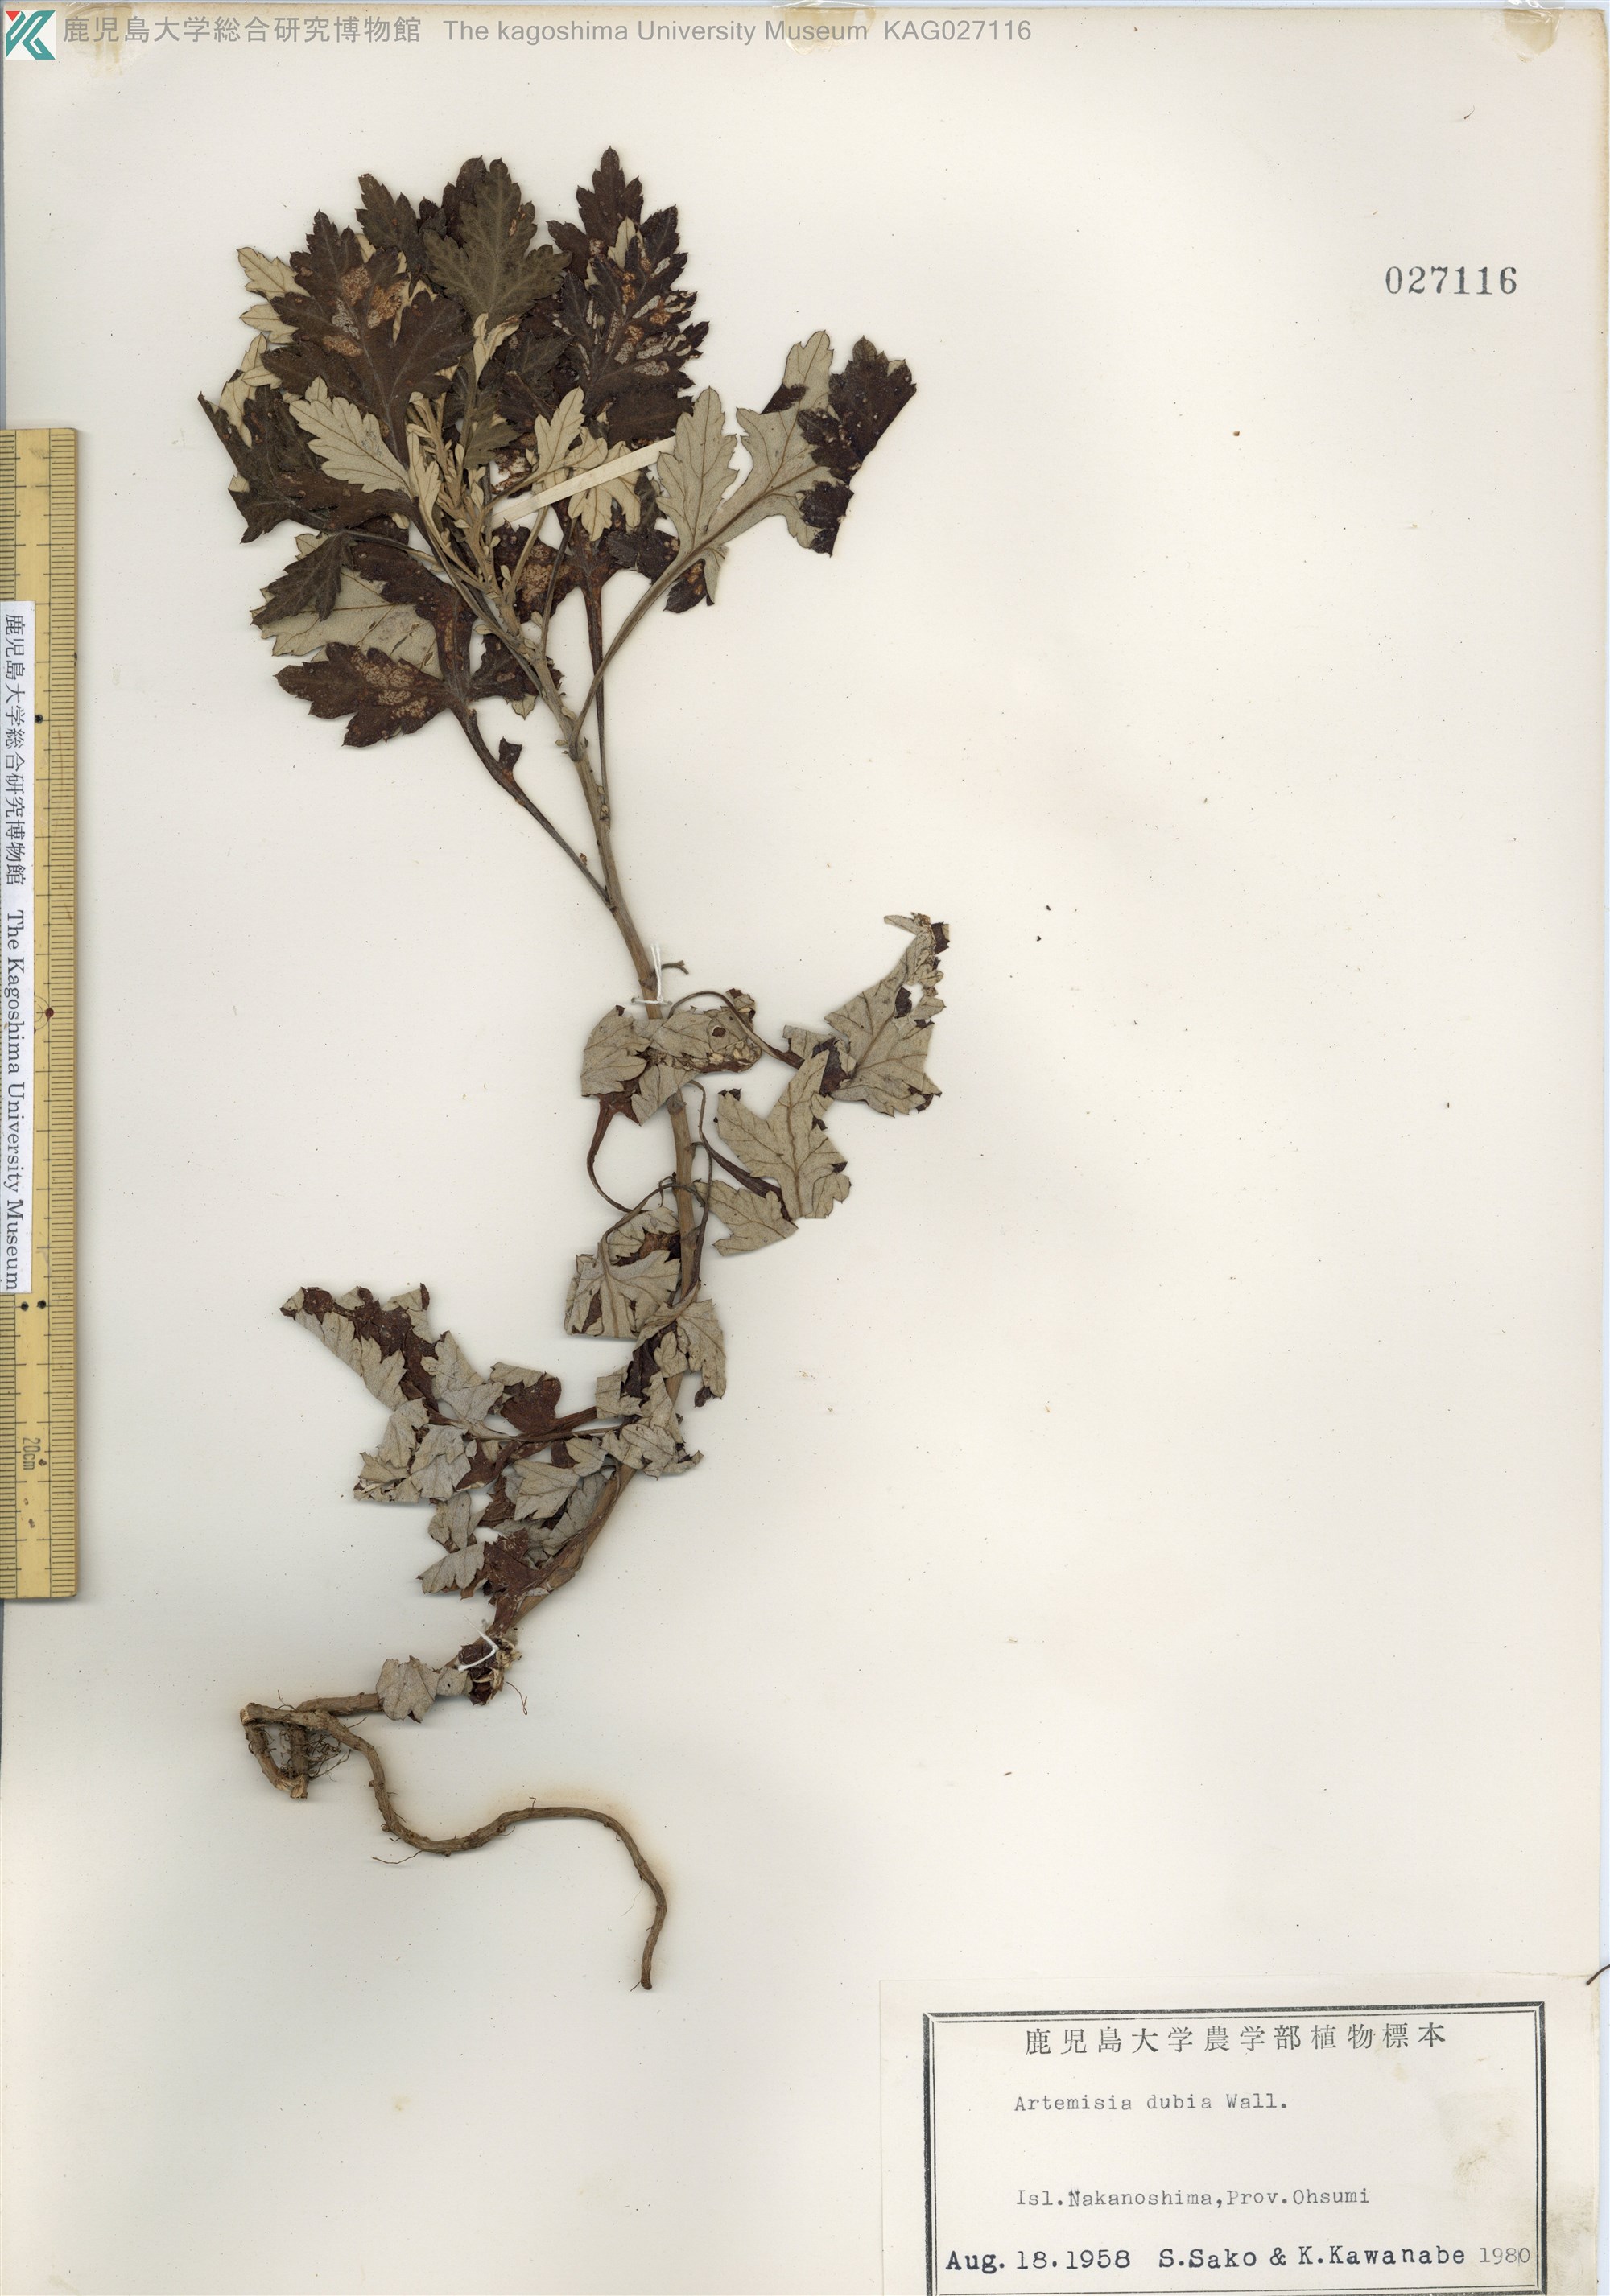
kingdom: Plantae
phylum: Tracheophyta
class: Magnoliopsida
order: Asterales
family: Asteraceae
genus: Artemisia
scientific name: Artemisia indica
